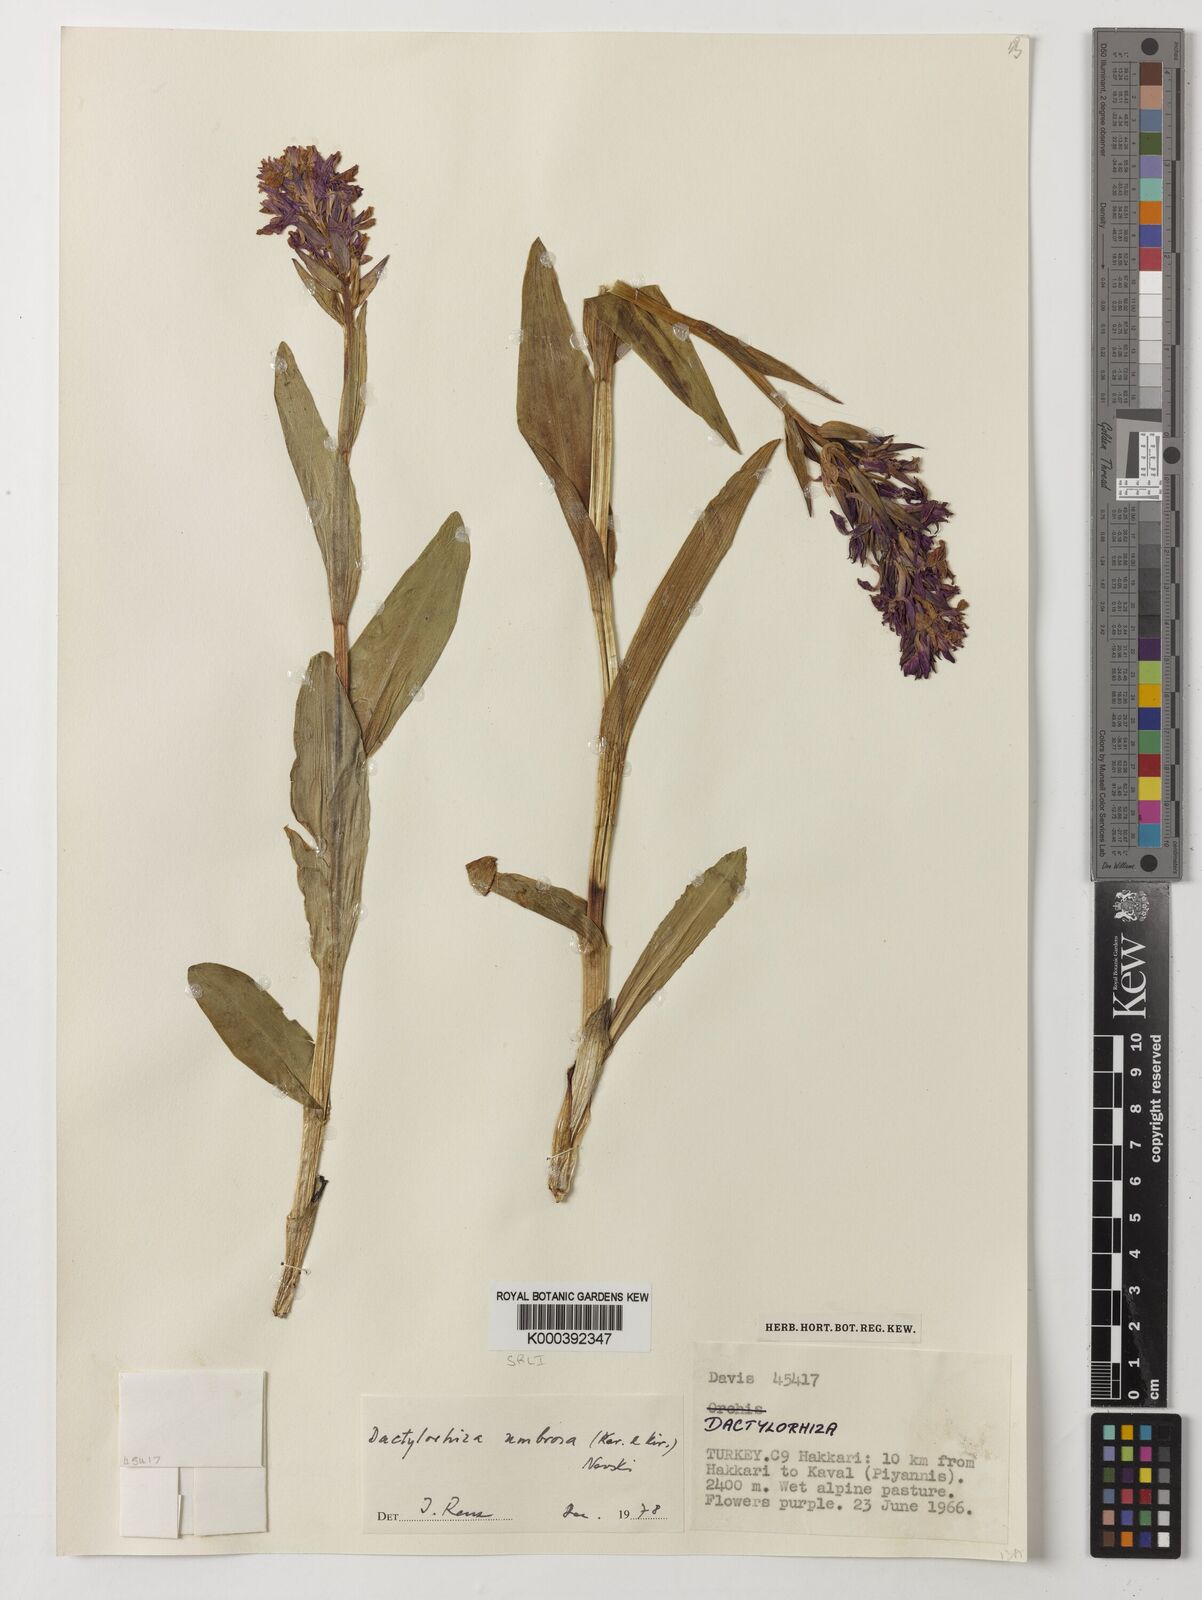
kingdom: Plantae
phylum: Tracheophyta
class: Liliopsida
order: Asparagales
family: Orchidaceae
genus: Dactylorhiza
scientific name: Dactylorhiza
